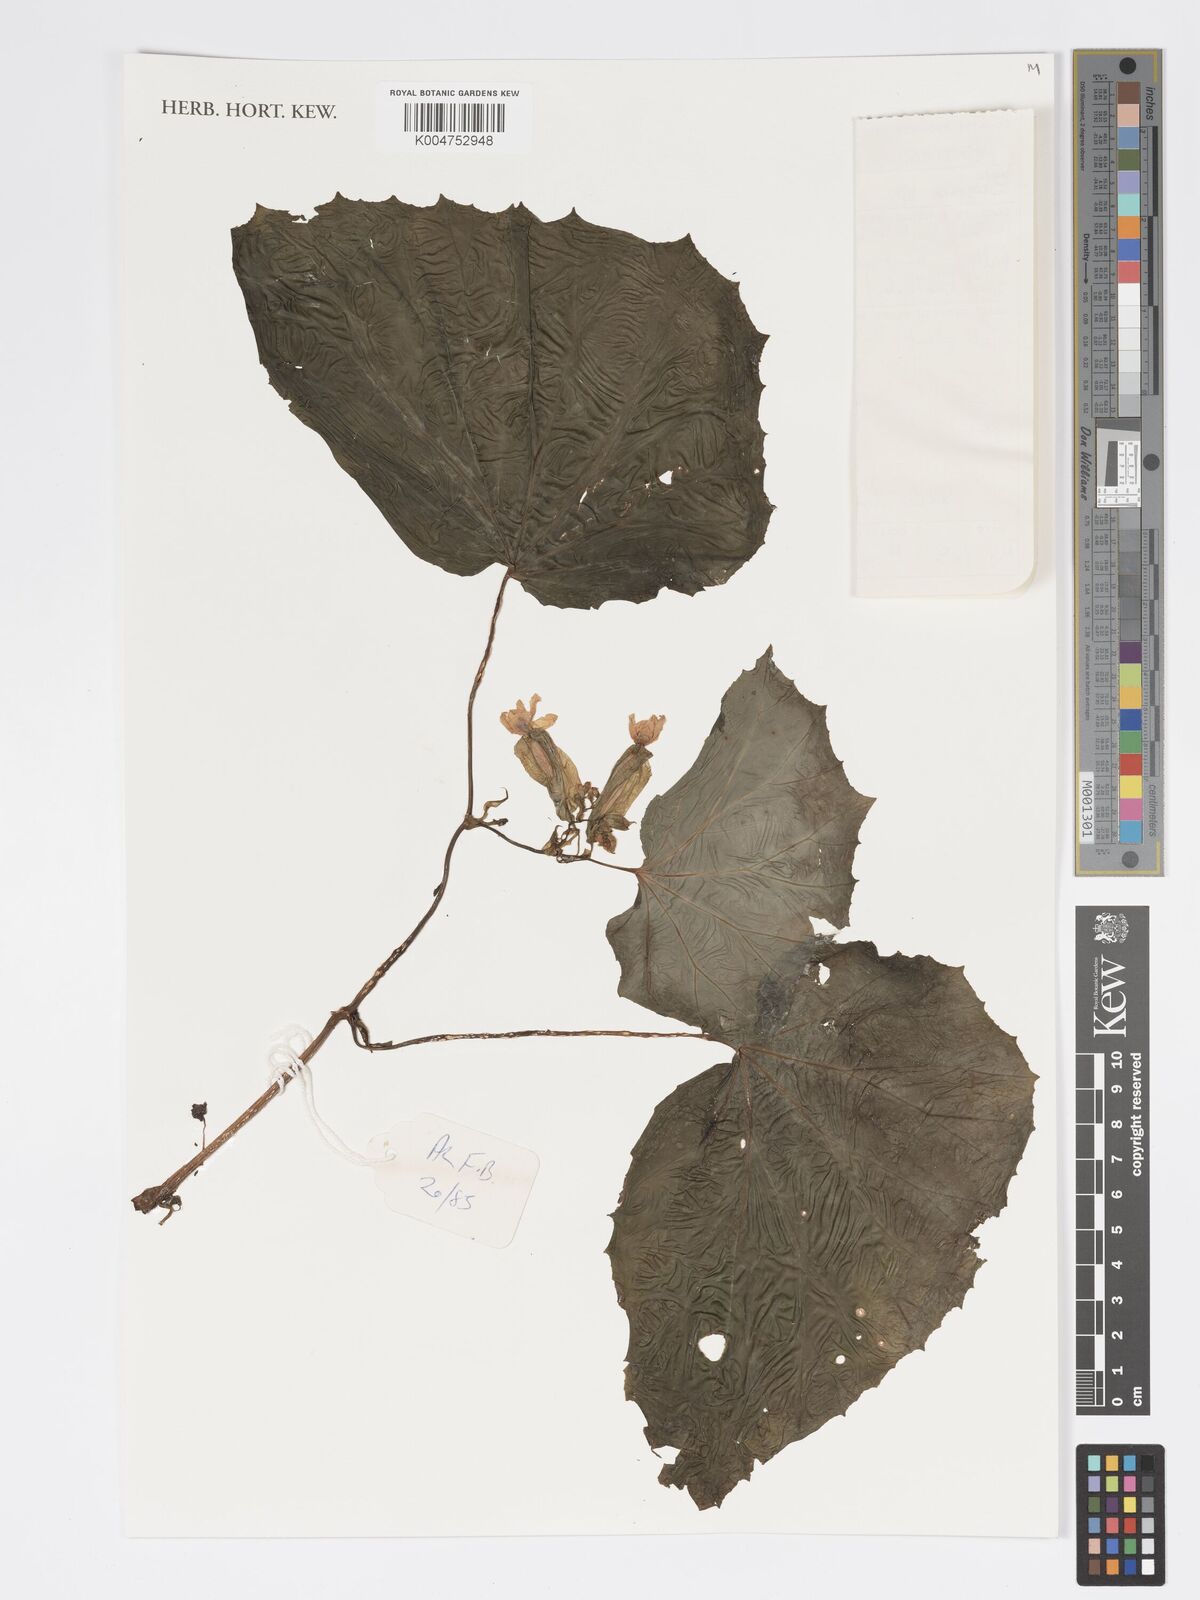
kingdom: Plantae
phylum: Tracheophyta
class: Magnoliopsida
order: Cucurbitales
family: Begoniaceae
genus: Begonia
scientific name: Begonia
